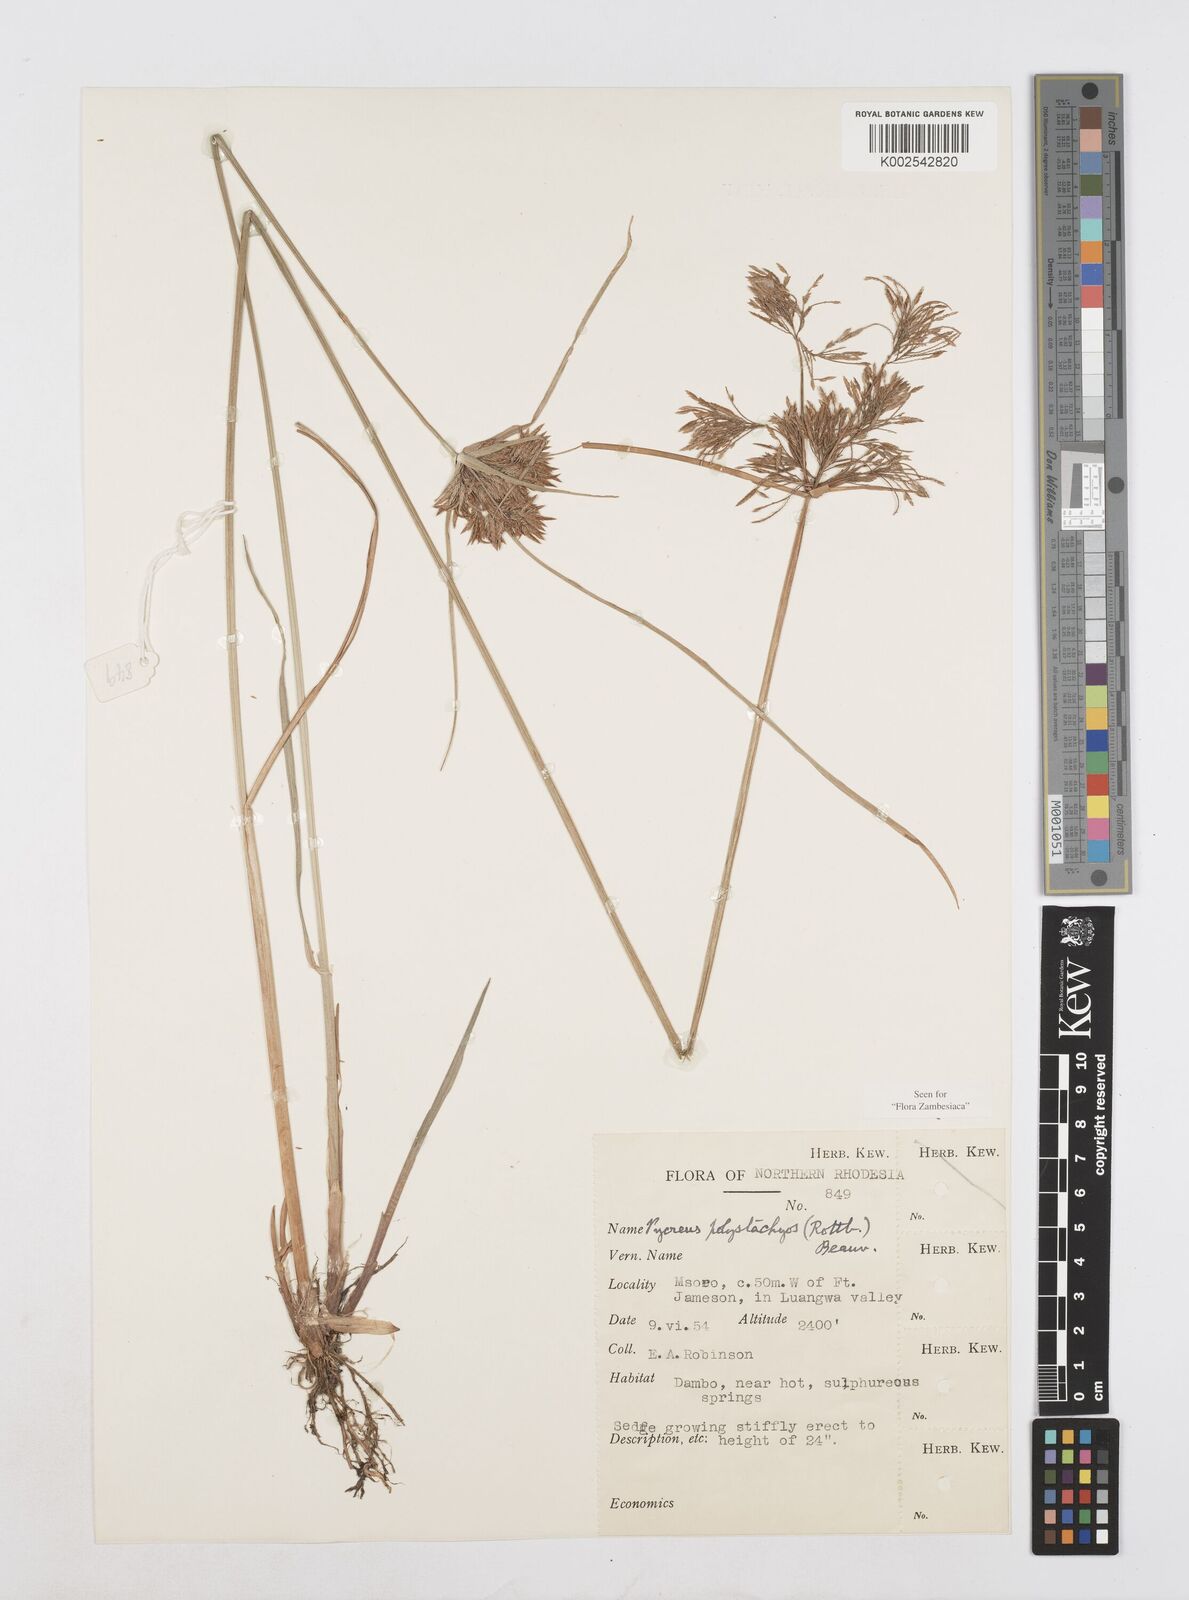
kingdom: Plantae
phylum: Tracheophyta
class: Liliopsida
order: Poales
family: Cyperaceae
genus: Cyperus
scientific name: Cyperus polystachyos
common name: Bunchy flat sedge
